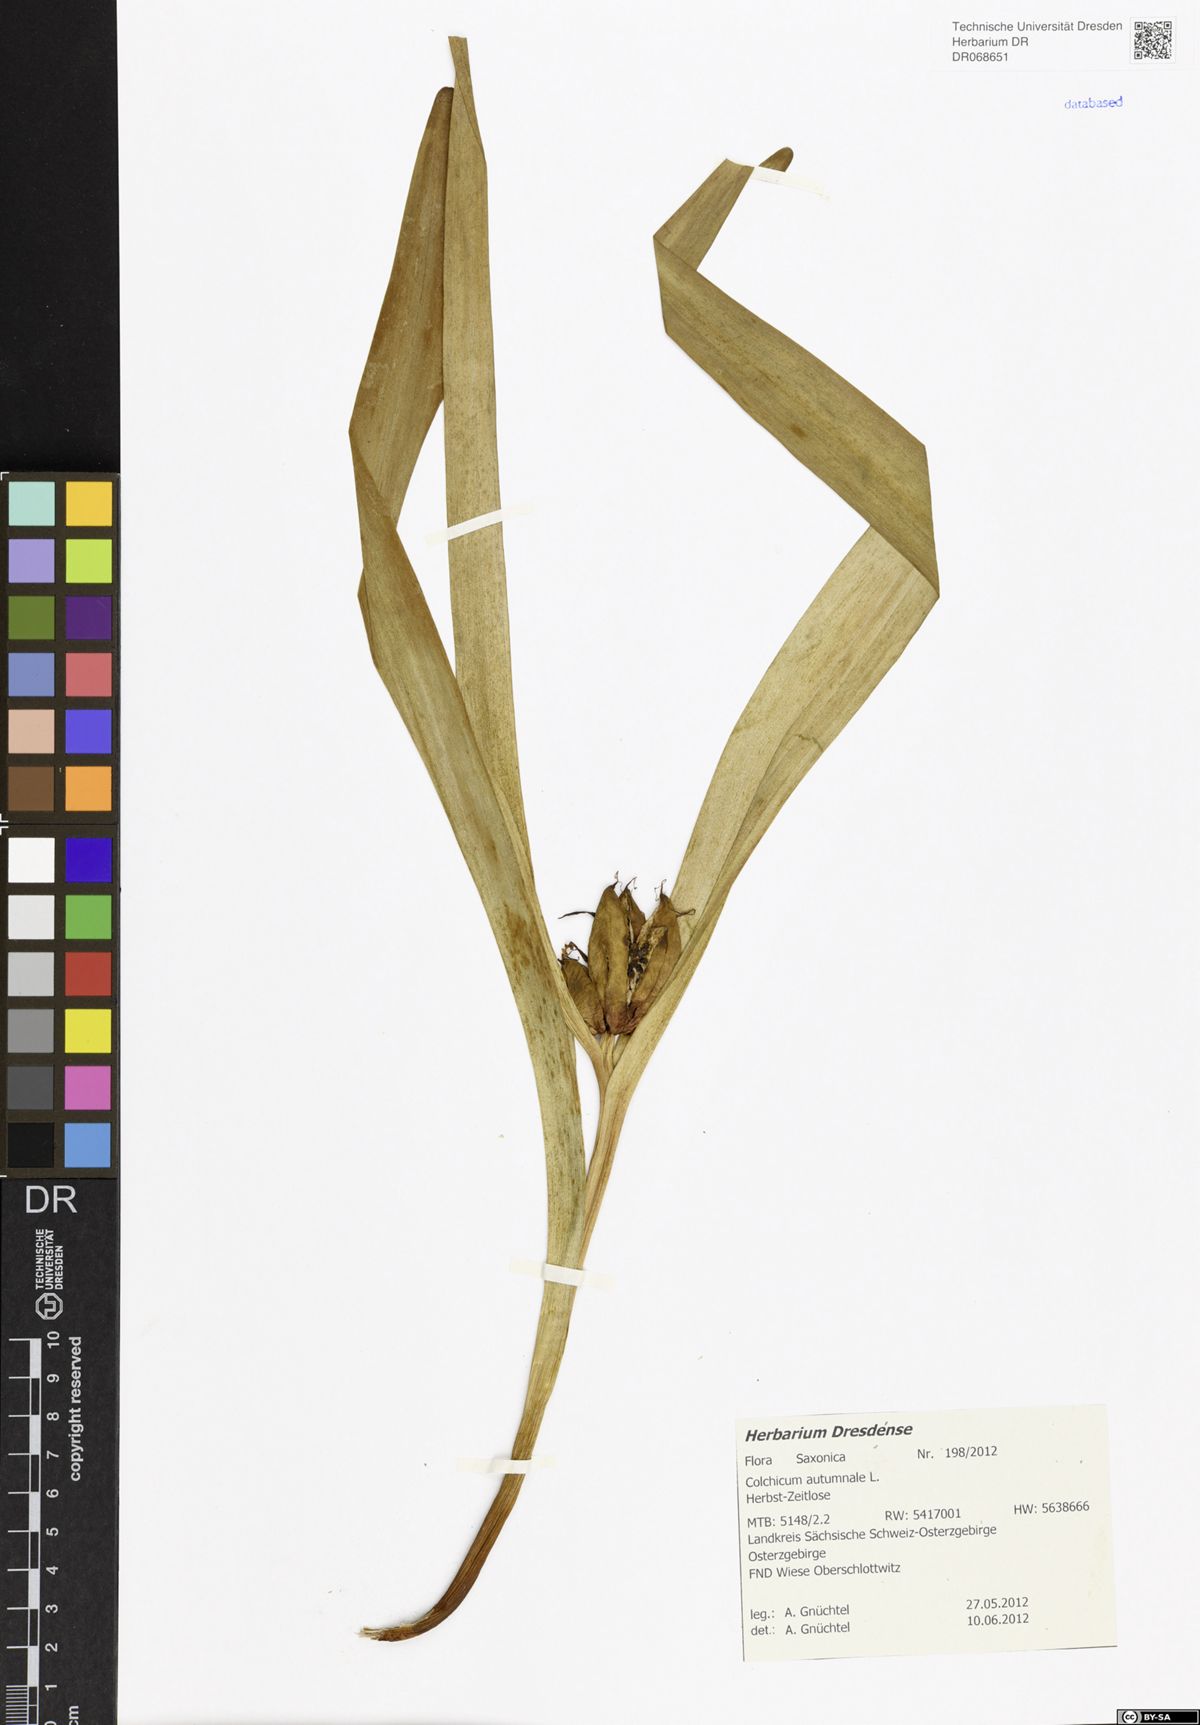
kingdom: Plantae
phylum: Tracheophyta
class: Liliopsida
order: Liliales
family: Colchicaceae
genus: Colchicum
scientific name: Colchicum autumnale
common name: Autumn crocus
